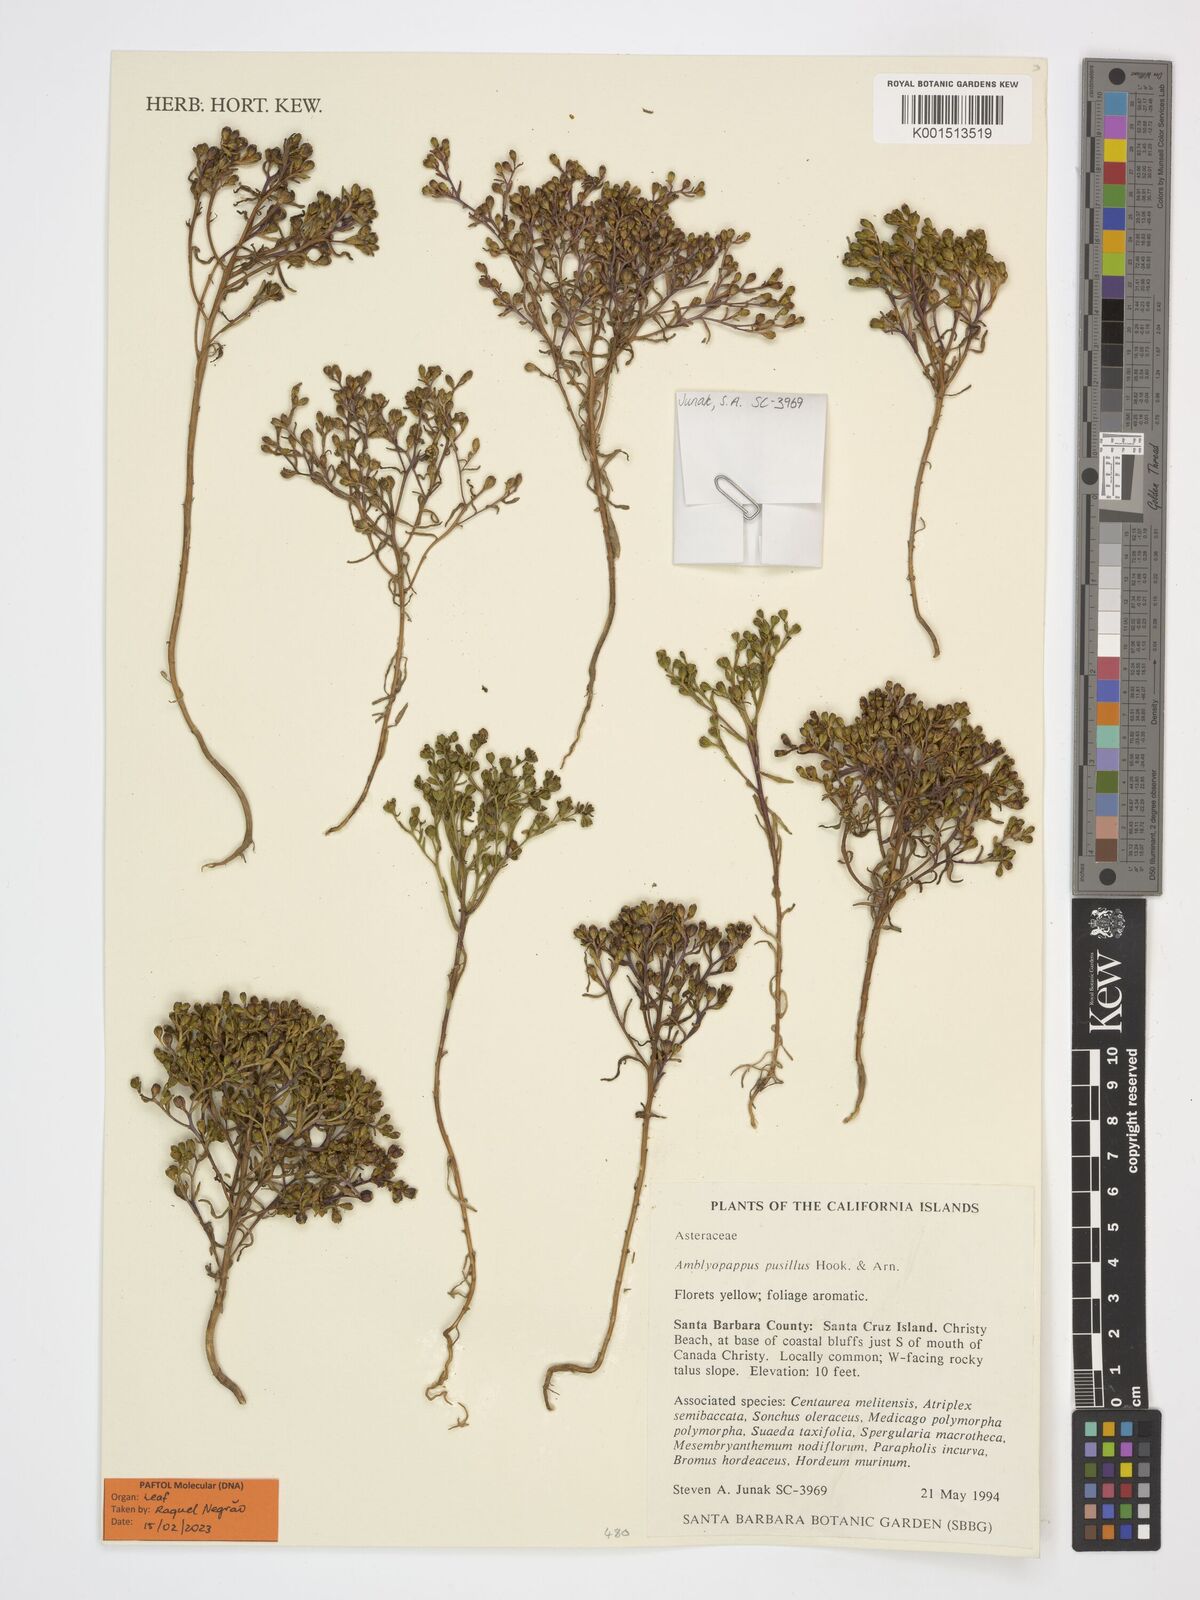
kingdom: Plantae
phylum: Tracheophyta
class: Magnoliopsida
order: Asterales
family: Asteraceae
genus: Amblyopappus
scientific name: Amblyopappus pusillus
